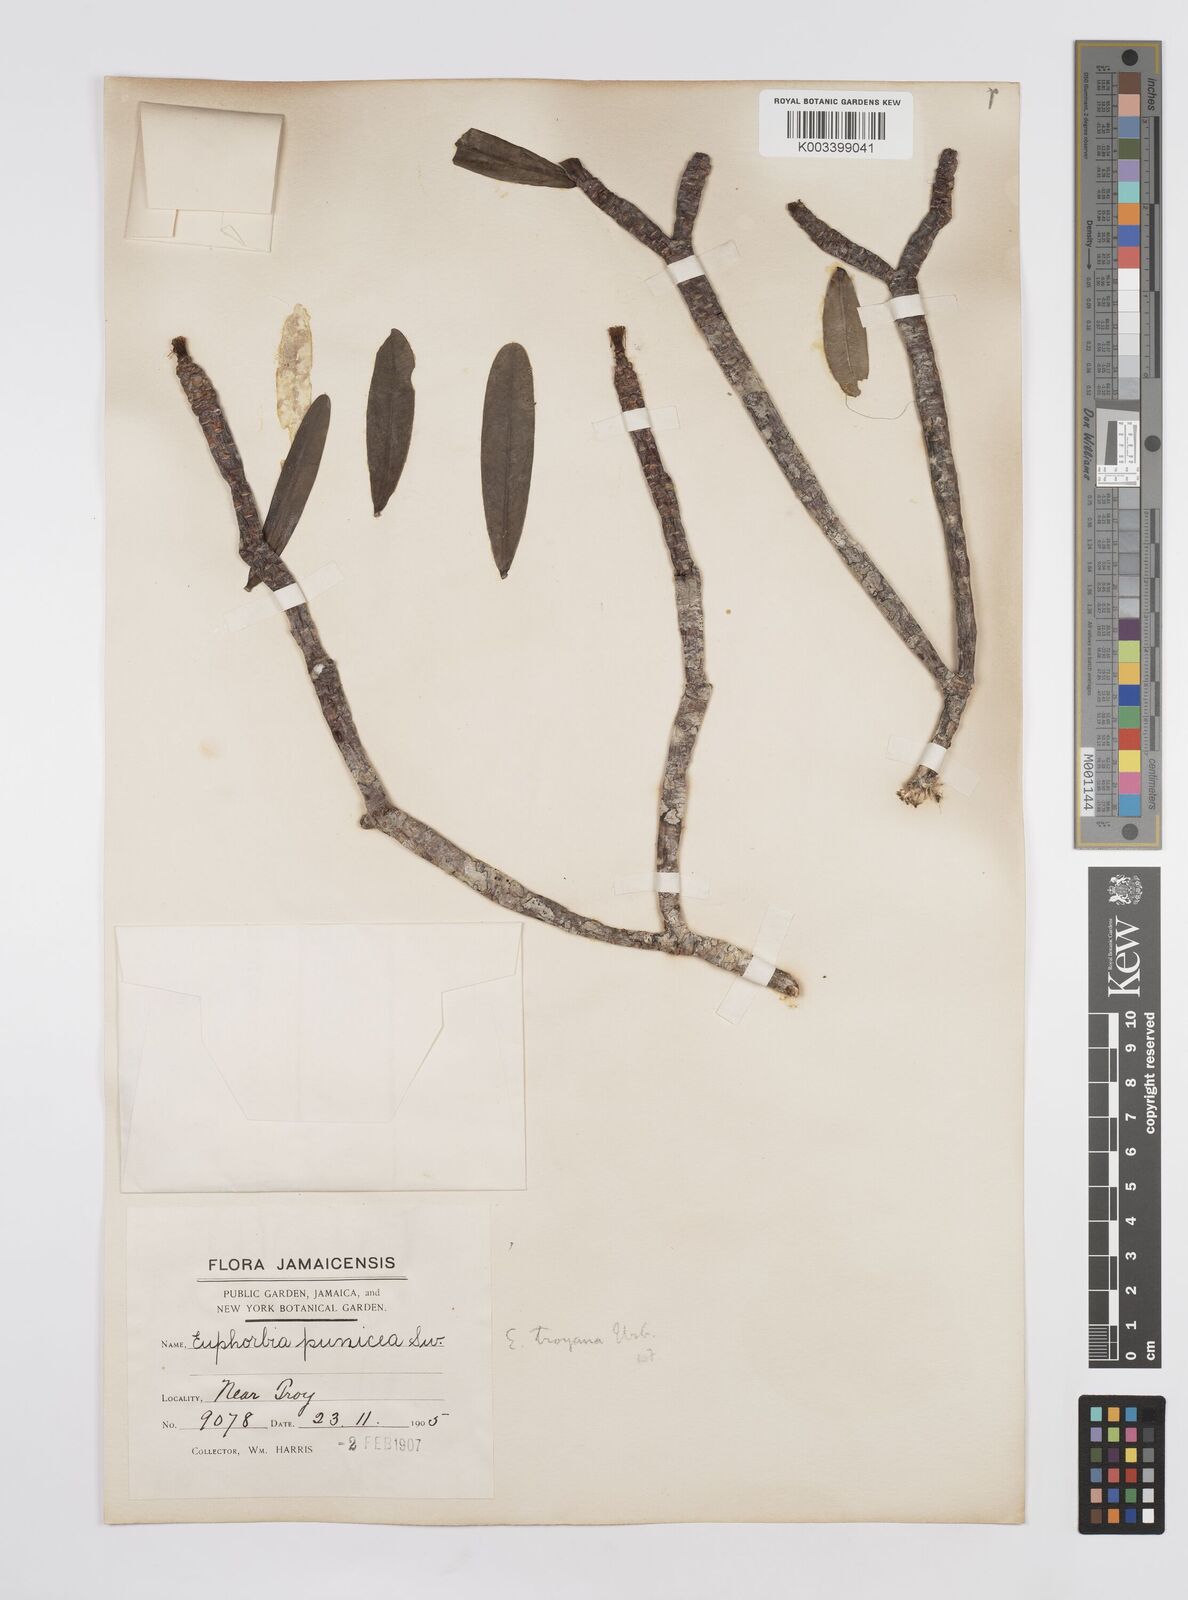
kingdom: Plantae
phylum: Tracheophyta
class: Magnoliopsida
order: Malpighiales
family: Euphorbiaceae
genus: Euphorbia
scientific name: Euphorbia punicea
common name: Vegetable-leather
